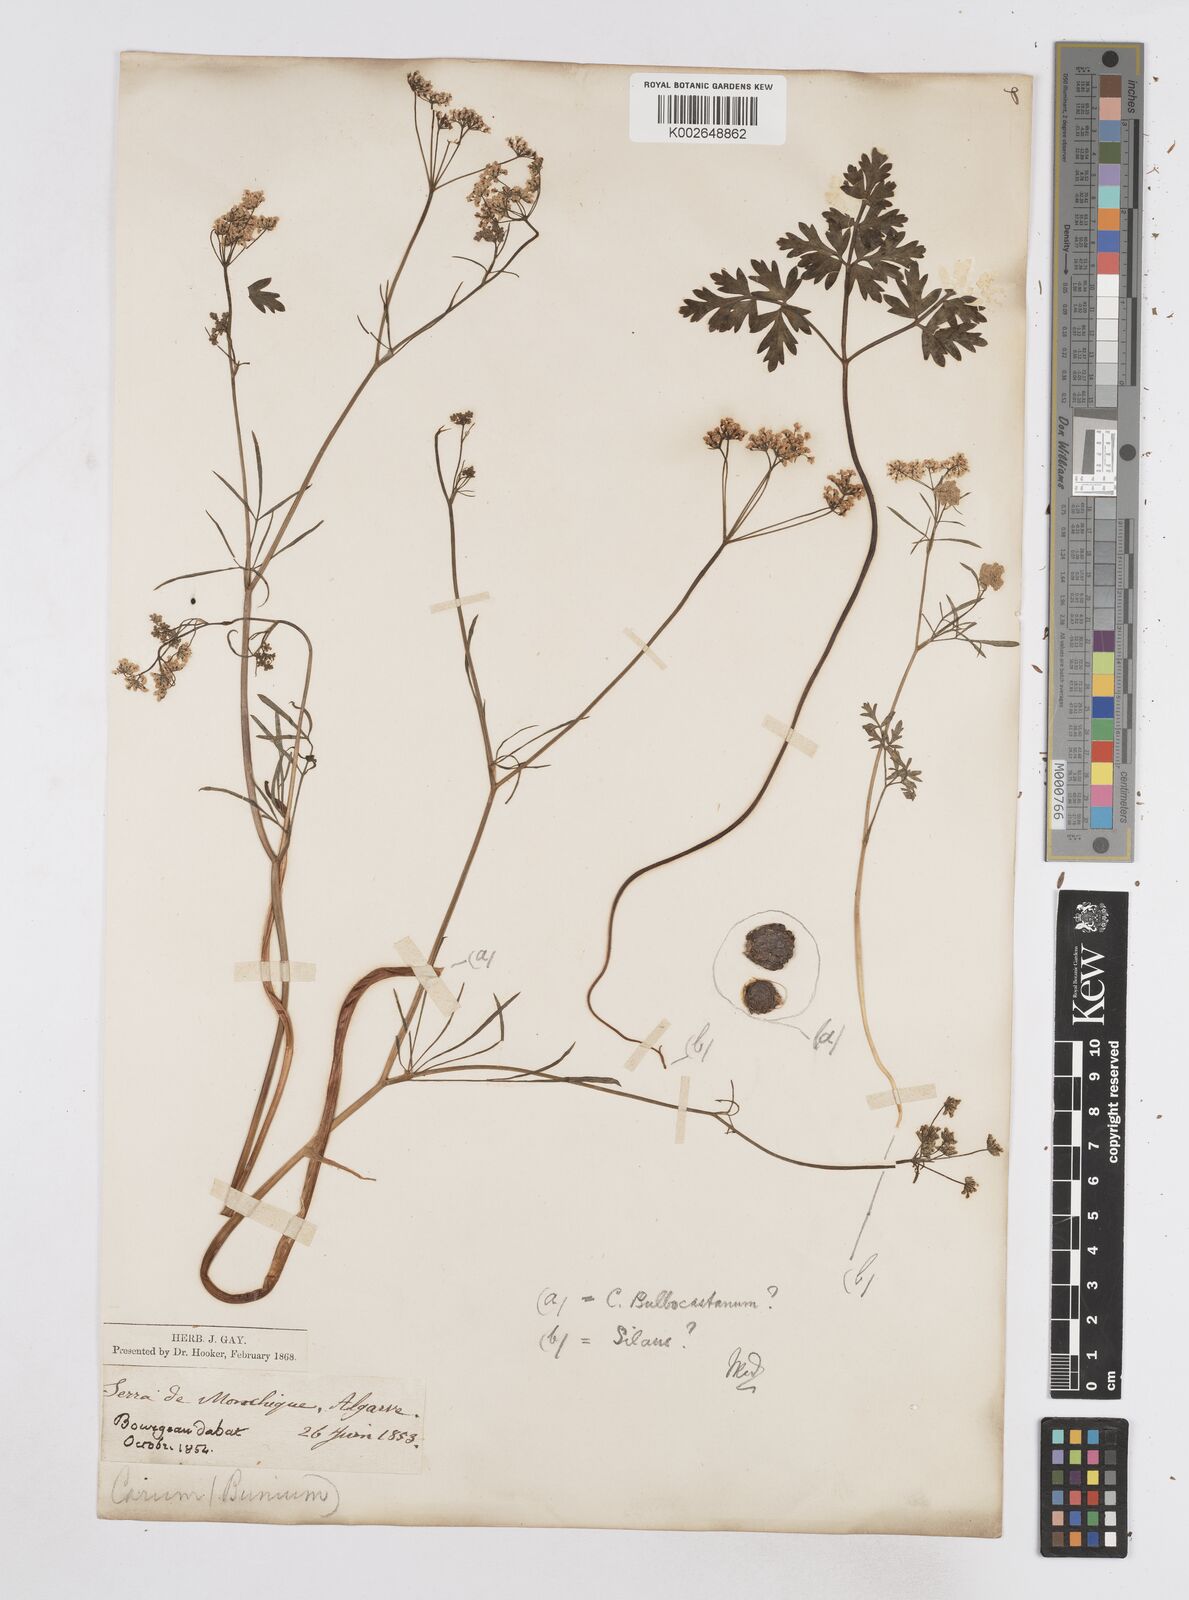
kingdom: Plantae
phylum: Tracheophyta
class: Magnoliopsida
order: Apiales
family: Apiaceae
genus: Bunium
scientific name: Bunium bulbocastanum
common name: Great pignut
